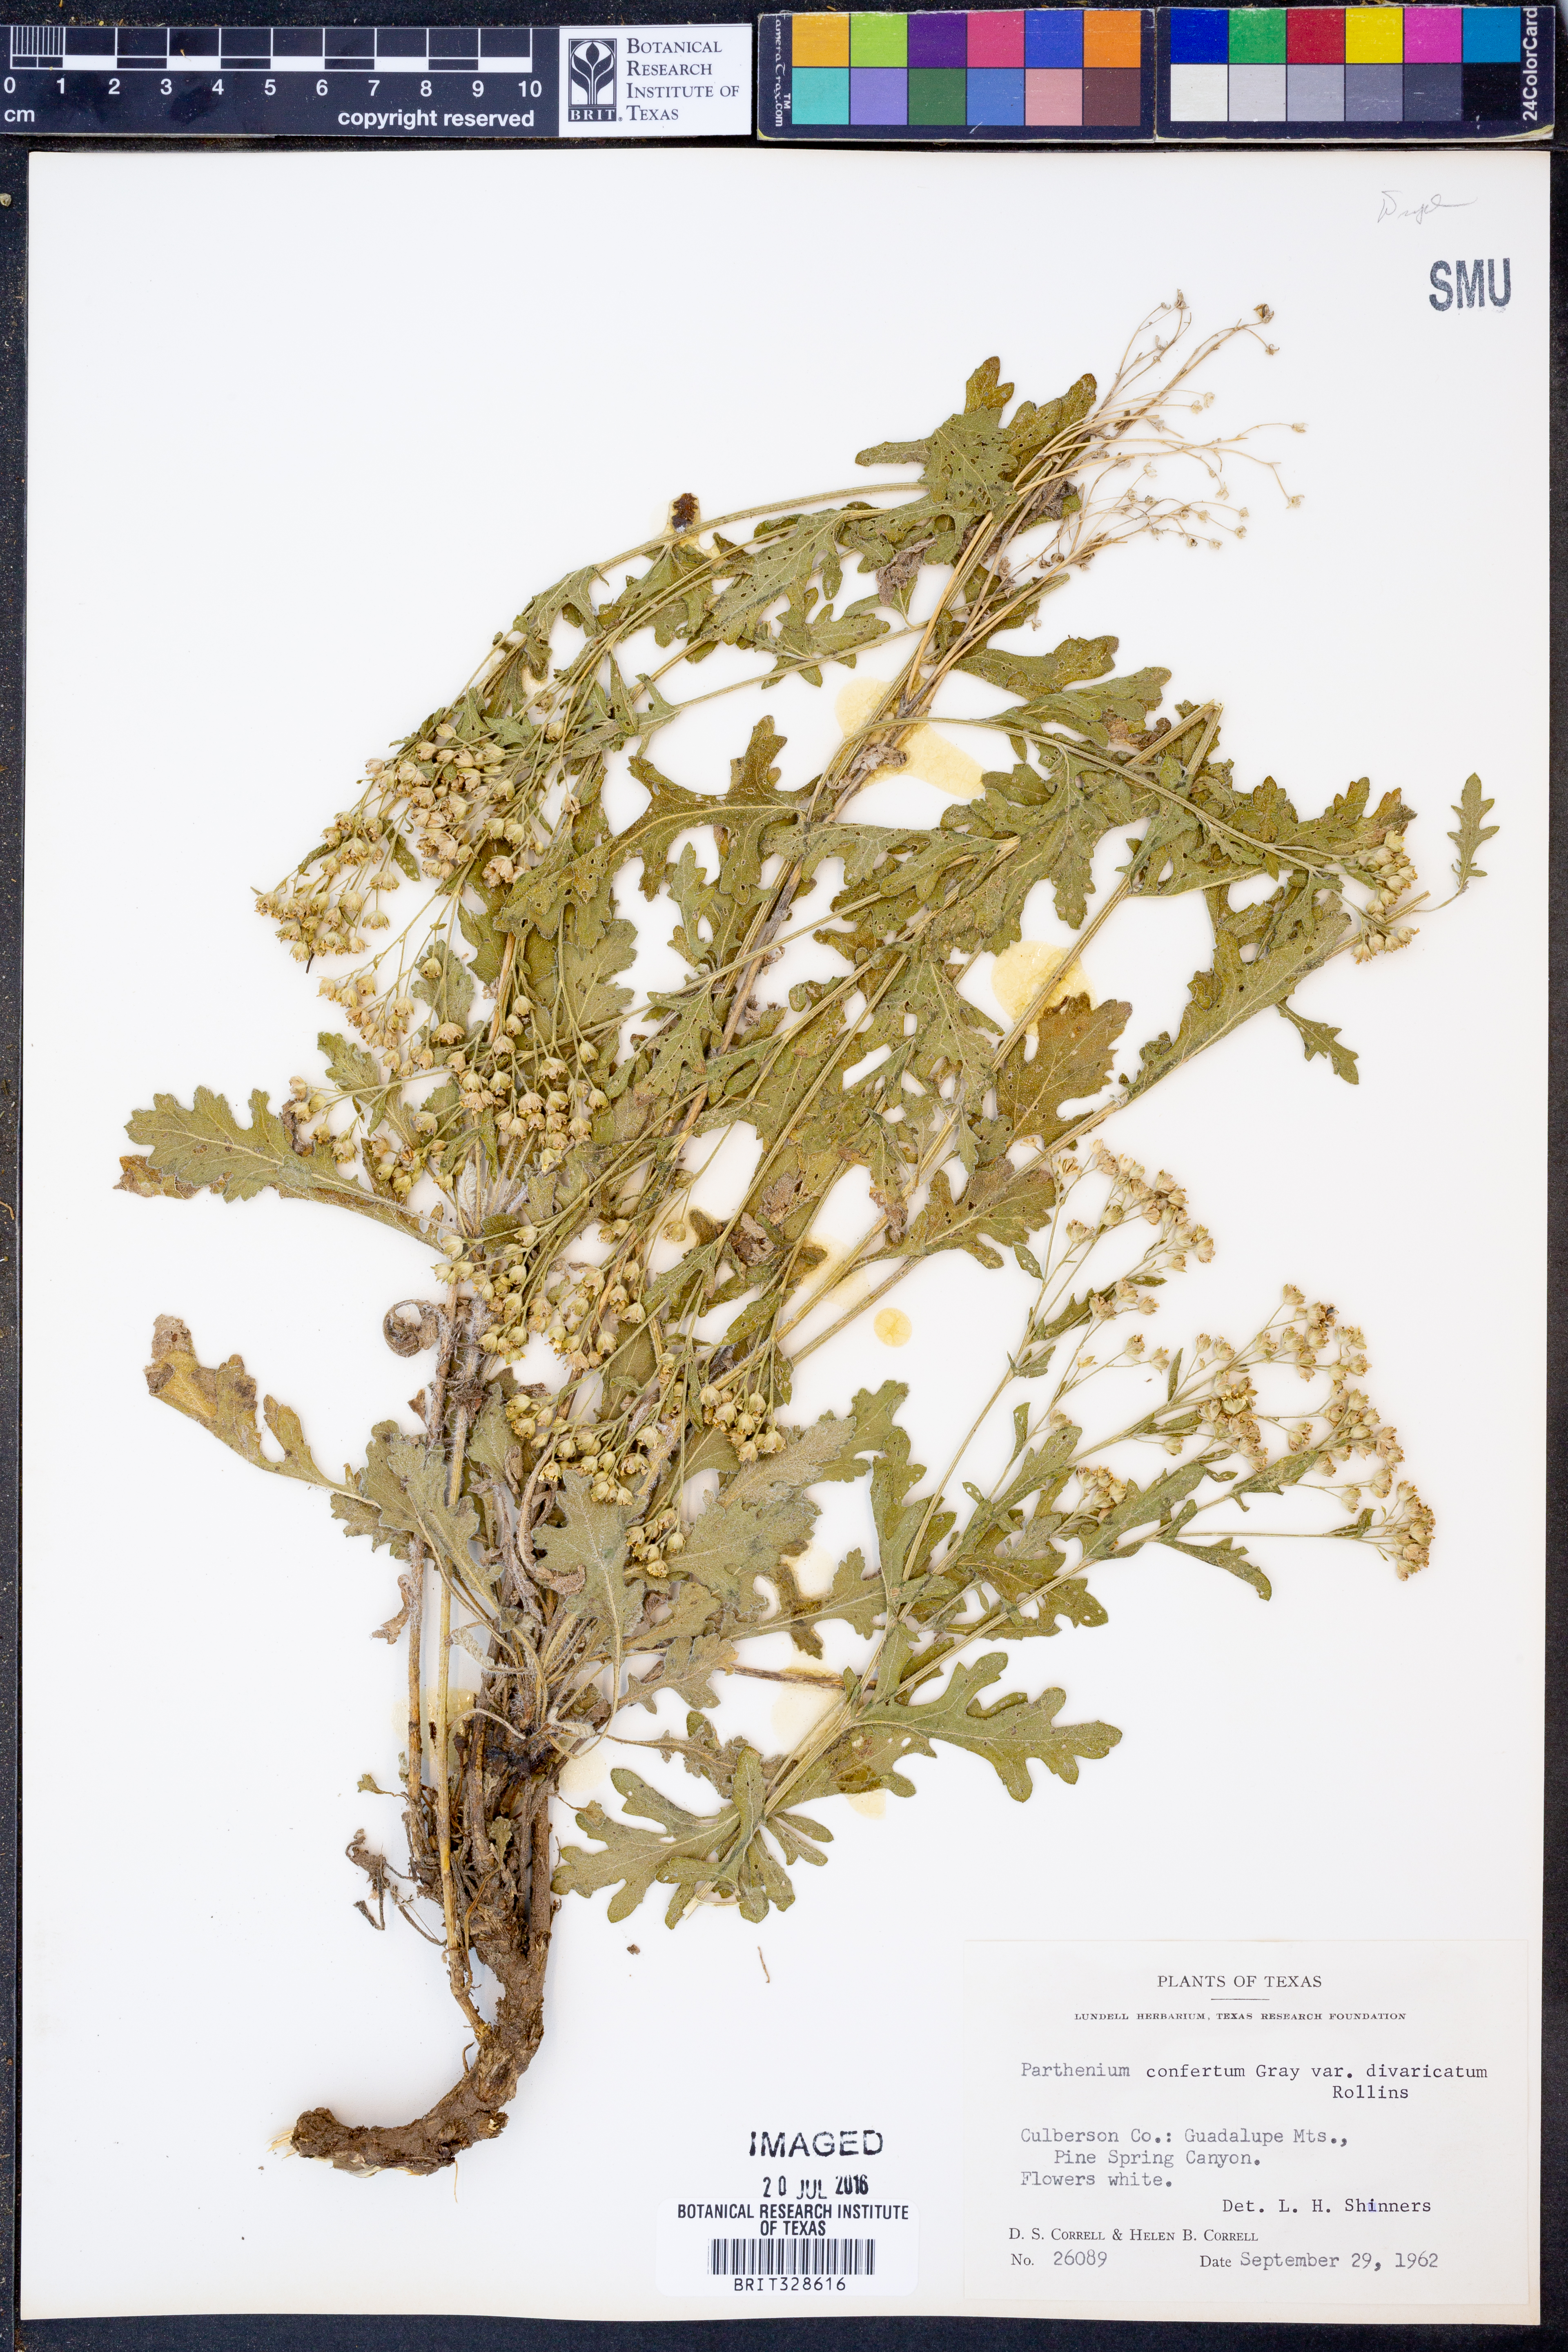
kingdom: Plantae
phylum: Tracheophyta
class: Magnoliopsida
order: Asterales
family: Asteraceae
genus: Parthenium
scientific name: Parthenium confertum
